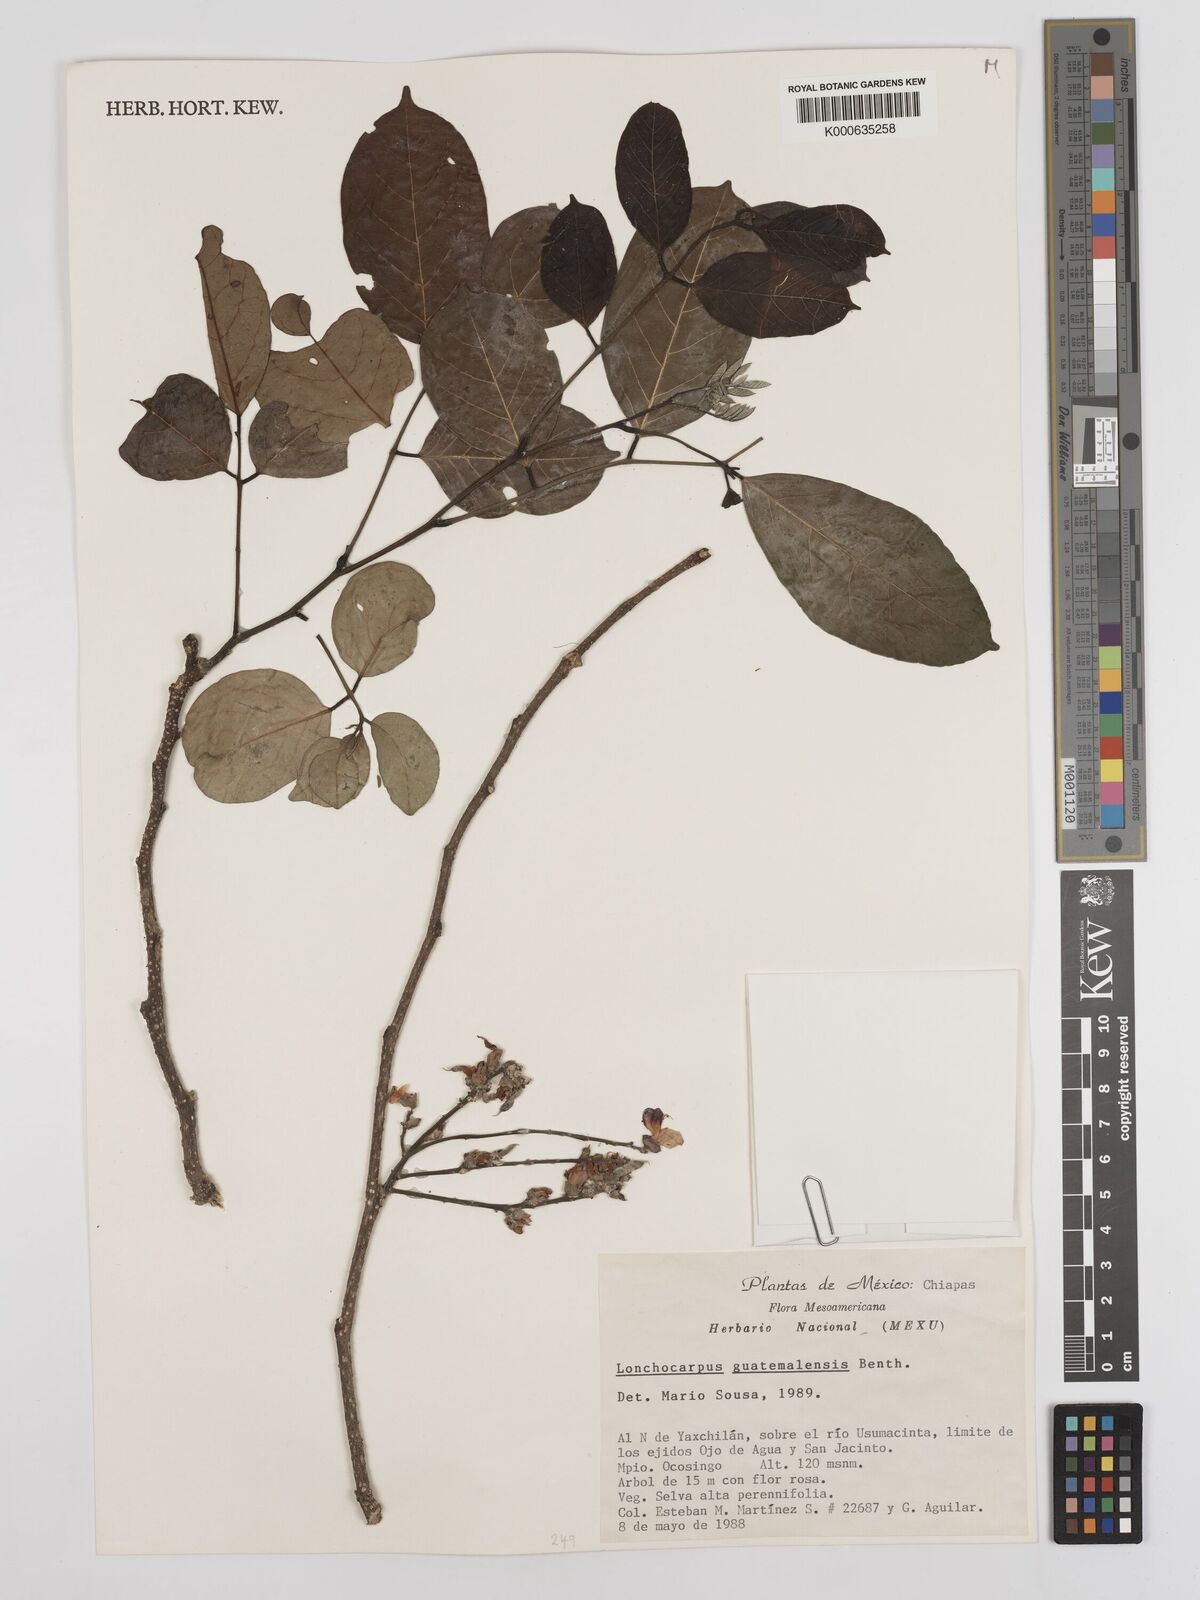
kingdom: Plantae
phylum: Tracheophyta
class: Magnoliopsida
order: Fabales
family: Fabaceae
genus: Lonchocarpus
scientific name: Lonchocarpus guatemalensis
